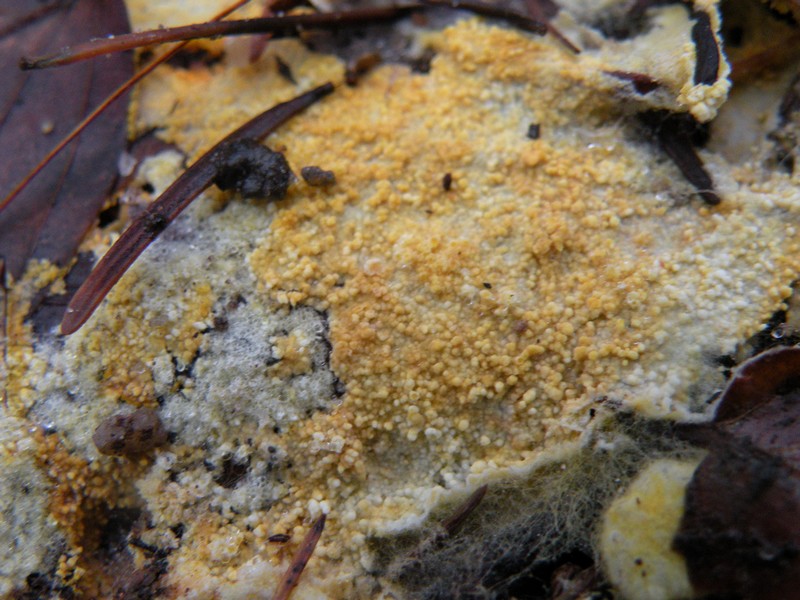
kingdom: Fungi
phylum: Basidiomycota
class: Agaricomycetes
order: Agaricales
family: Stephanosporaceae
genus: Lindtneria
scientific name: Lindtneria panphyliensis
